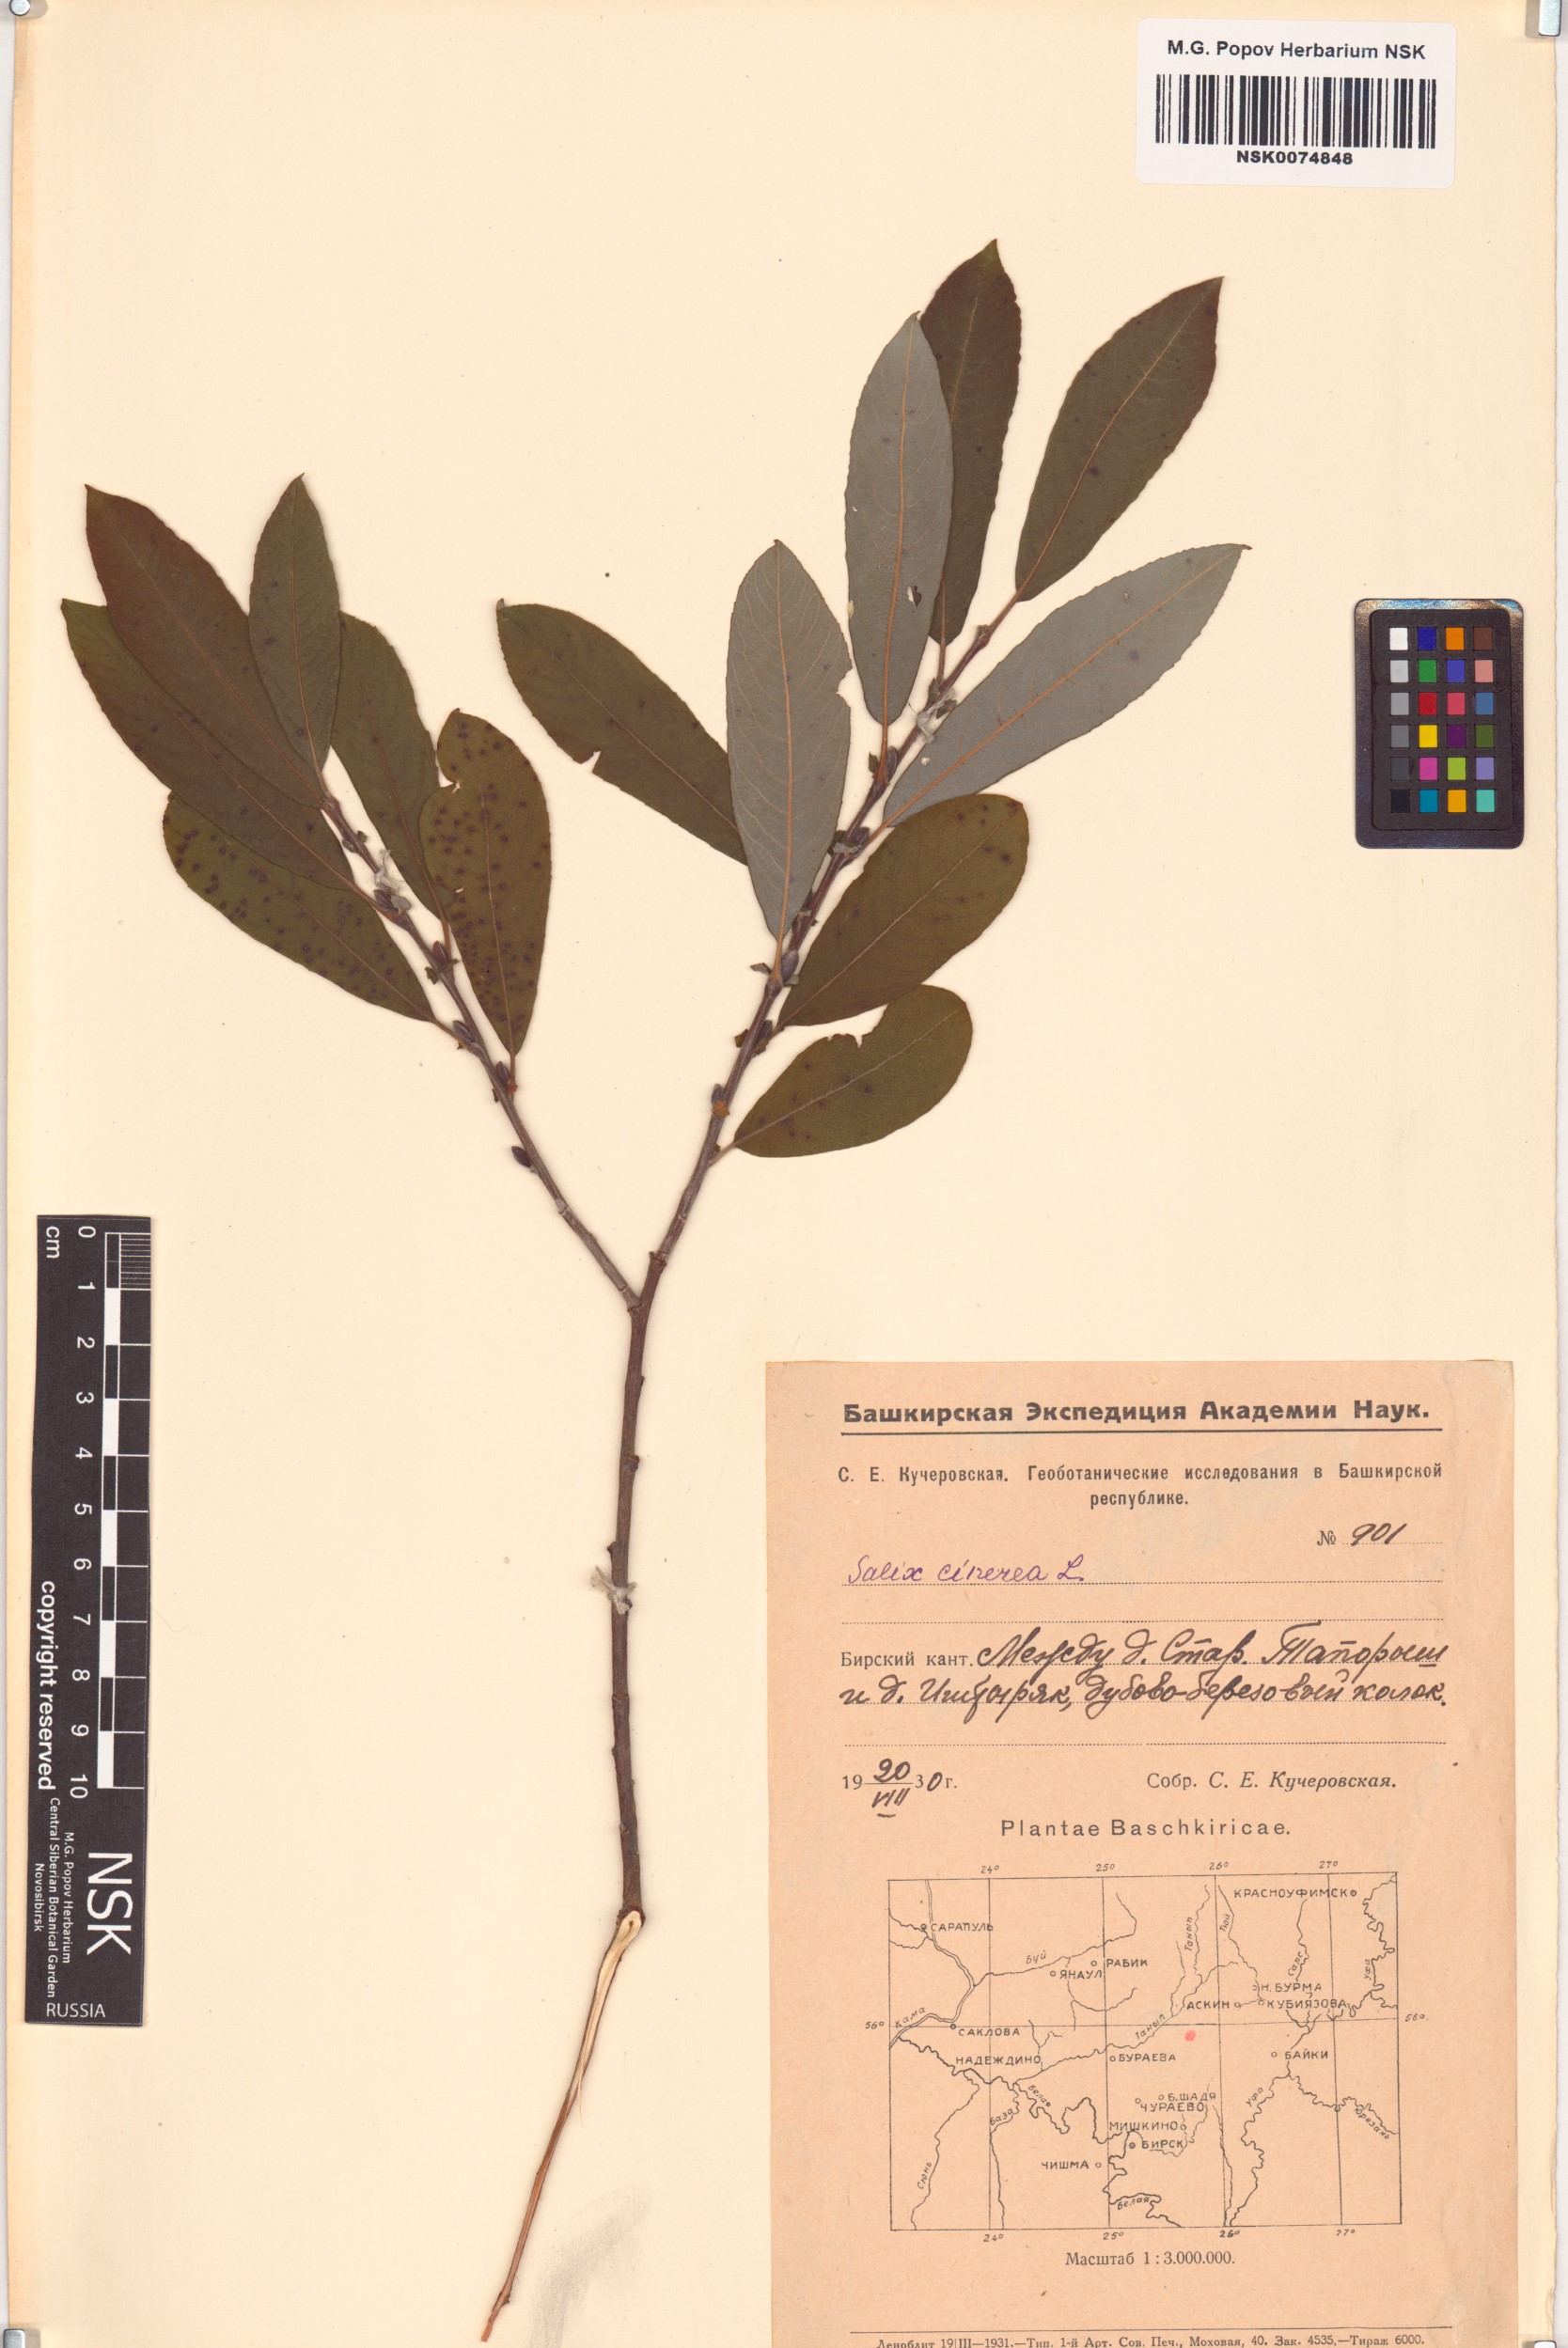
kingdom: Plantae
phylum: Tracheophyta
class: Magnoliopsida
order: Malpighiales
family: Salicaceae
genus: Salix
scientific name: Salix cinerea
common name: Common sallow
